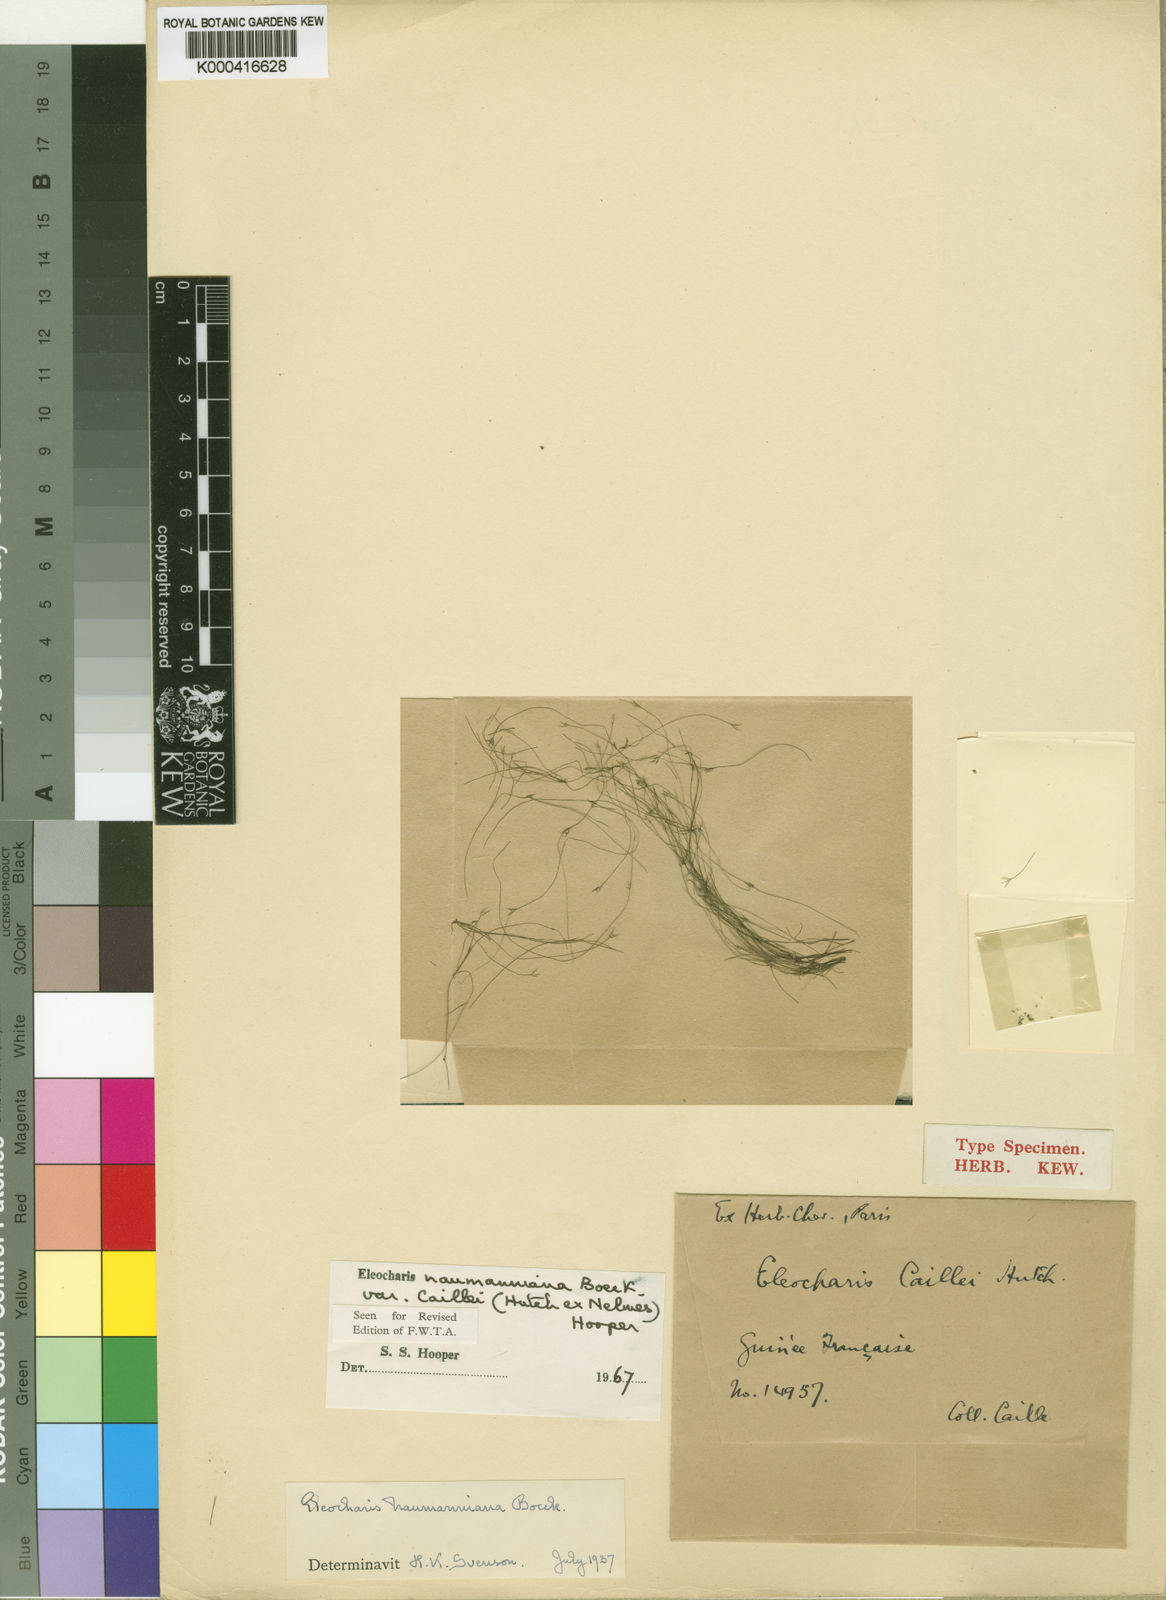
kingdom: Plantae
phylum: Tracheophyta
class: Liliopsida
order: Poales
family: Cyperaceae
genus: Eleocharis
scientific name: Eleocharis naumanniana
